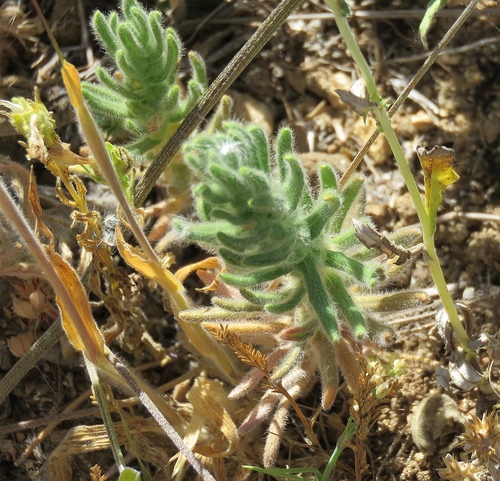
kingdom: Plantae
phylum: Tracheophyta
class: Magnoliopsida
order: Lamiales
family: Lamiaceae
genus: Ajuga
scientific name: Ajuga iva
